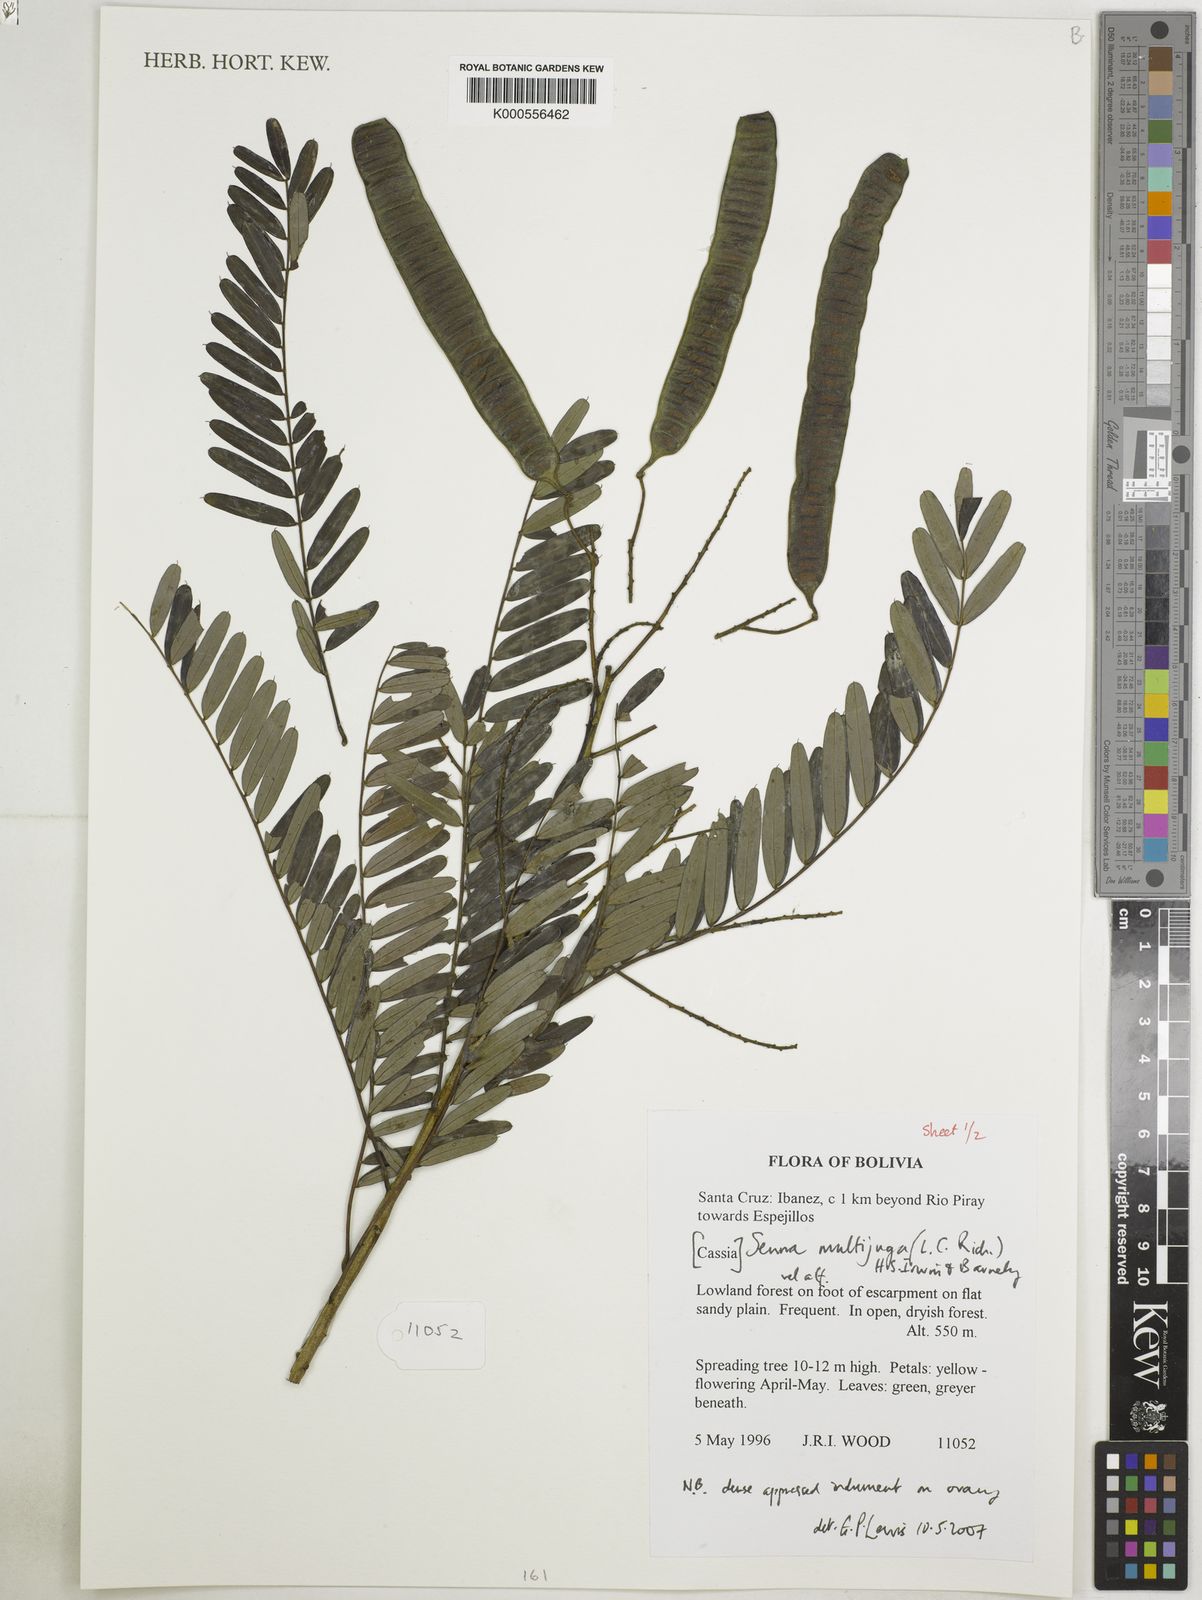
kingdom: Plantae
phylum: Tracheophyta
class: Magnoliopsida
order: Fabales
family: Fabaceae
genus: Senna
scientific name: Senna multijuga
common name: False sicklepod
